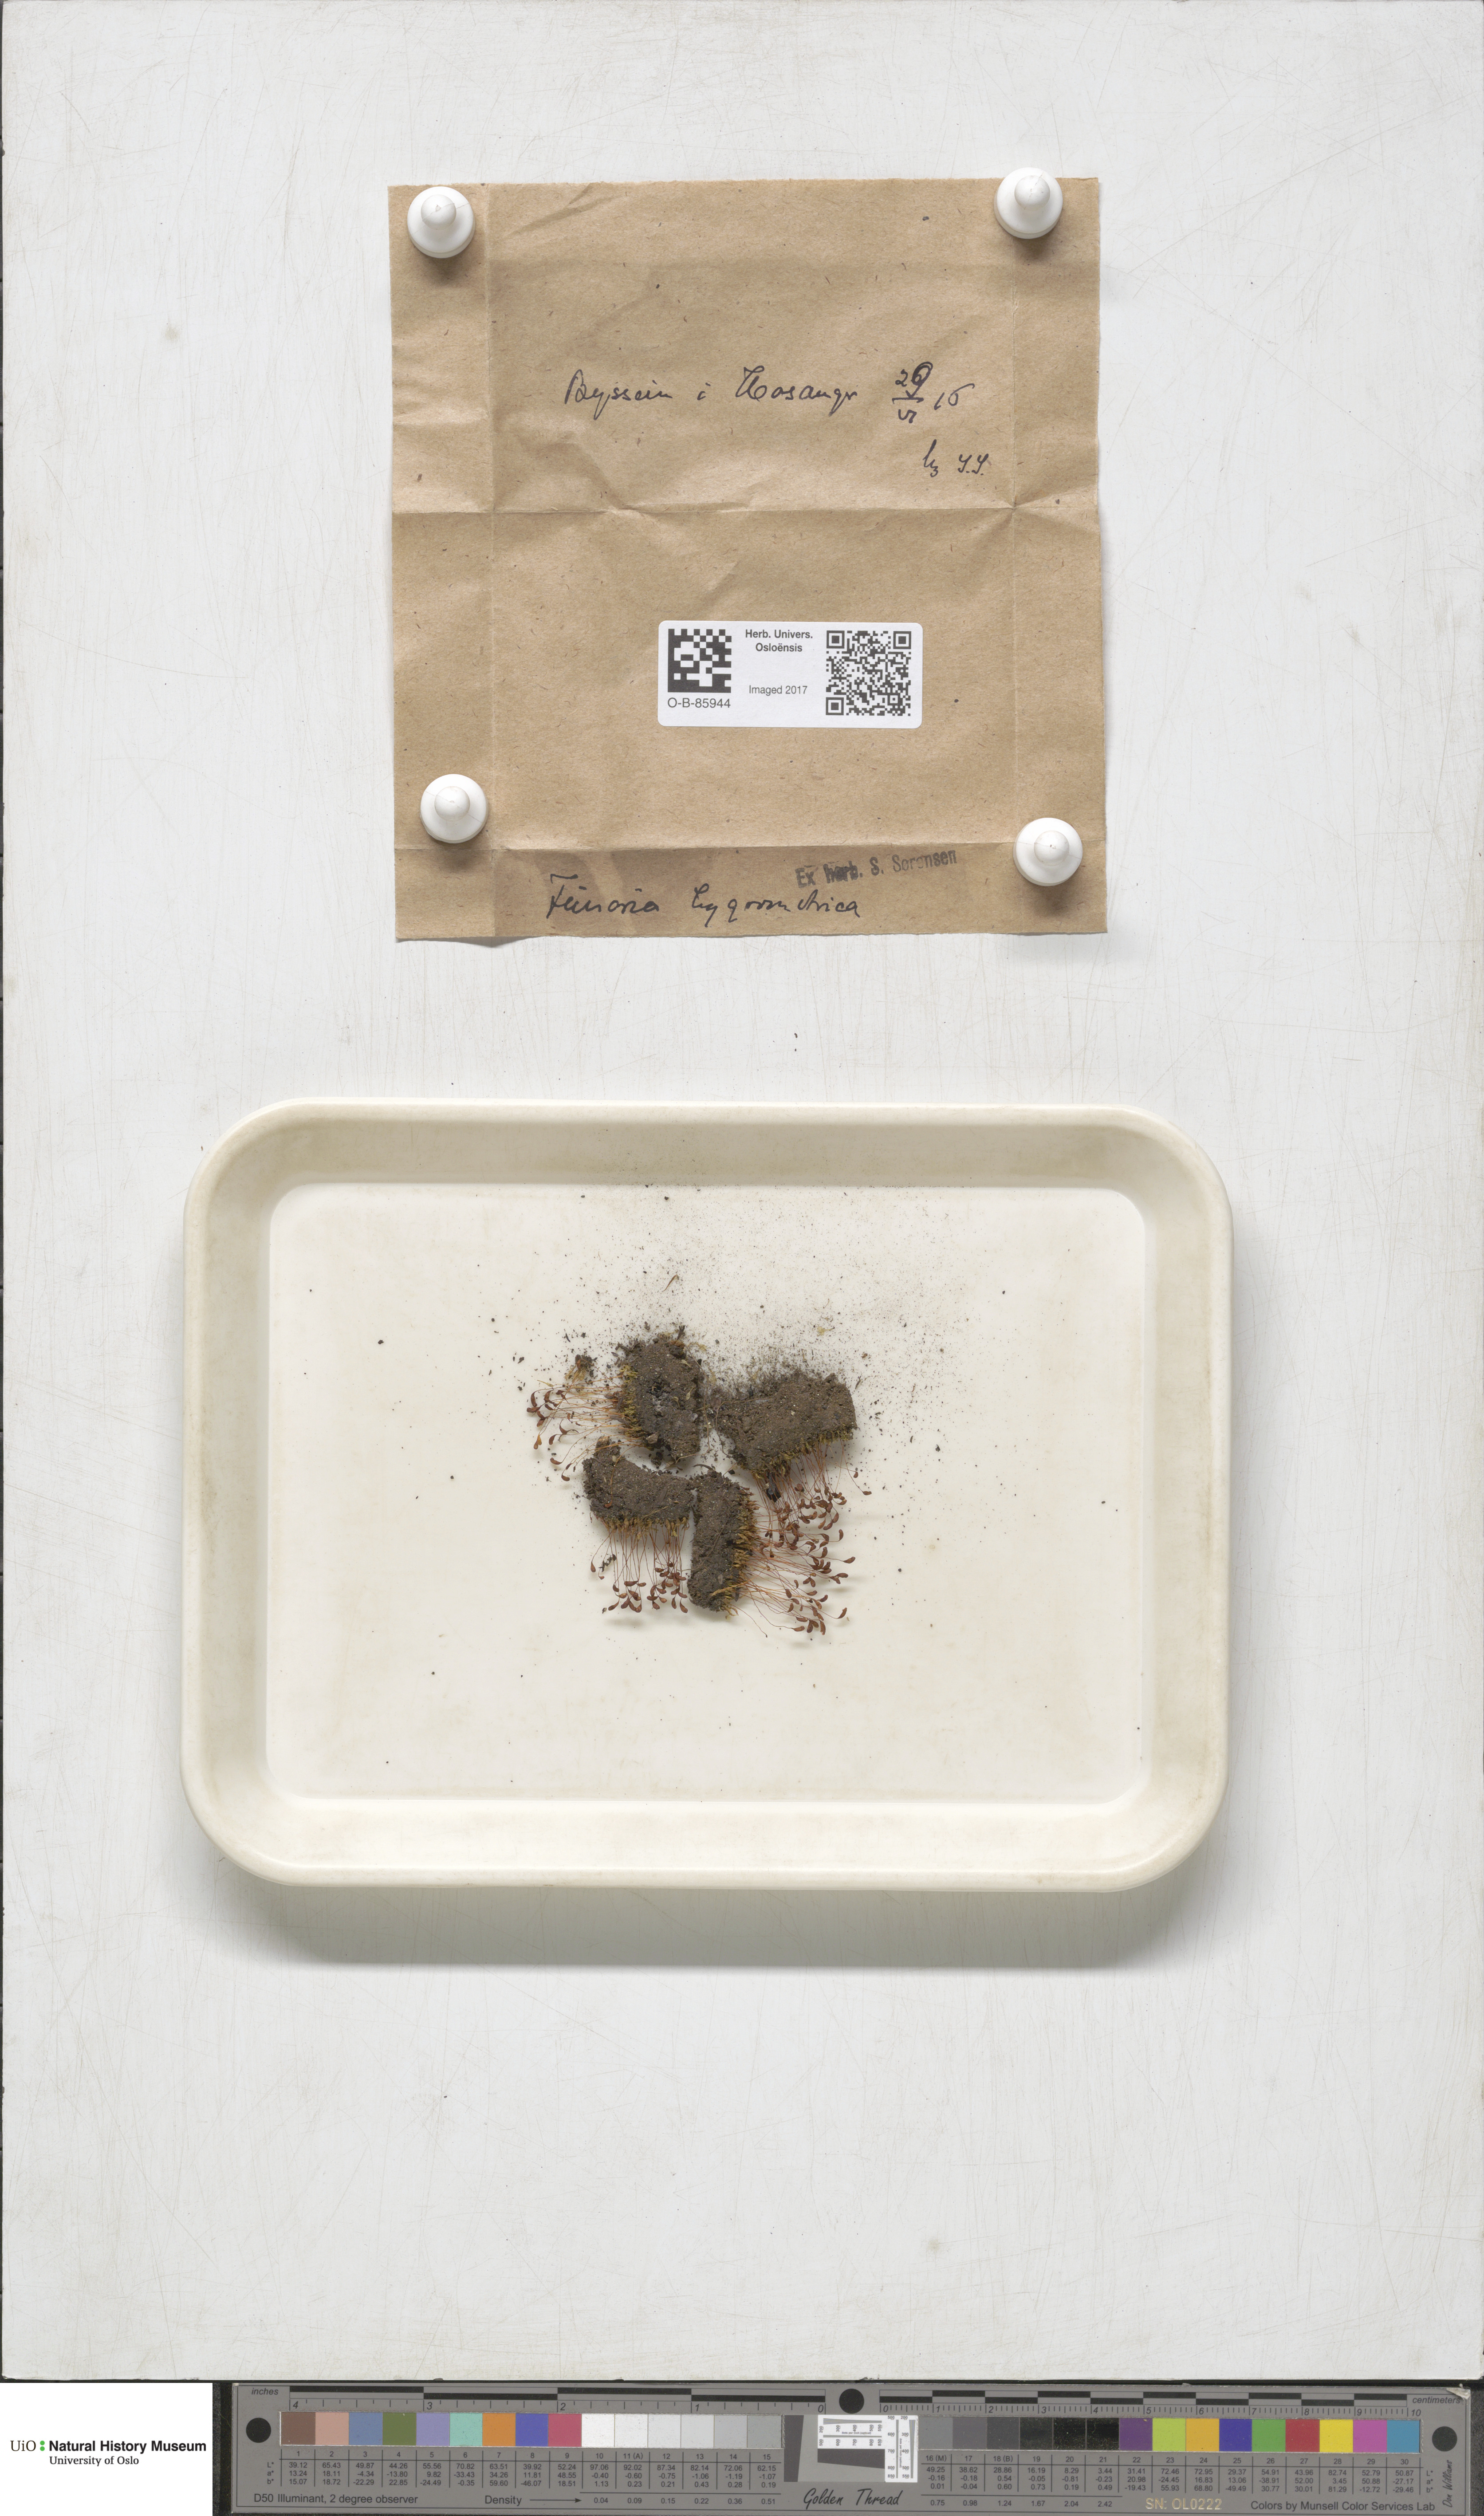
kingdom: Plantae
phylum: Bryophyta
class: Bryopsida
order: Funariales
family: Funariaceae
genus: Funaria
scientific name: Funaria hygrometrica
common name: Common cord moss
